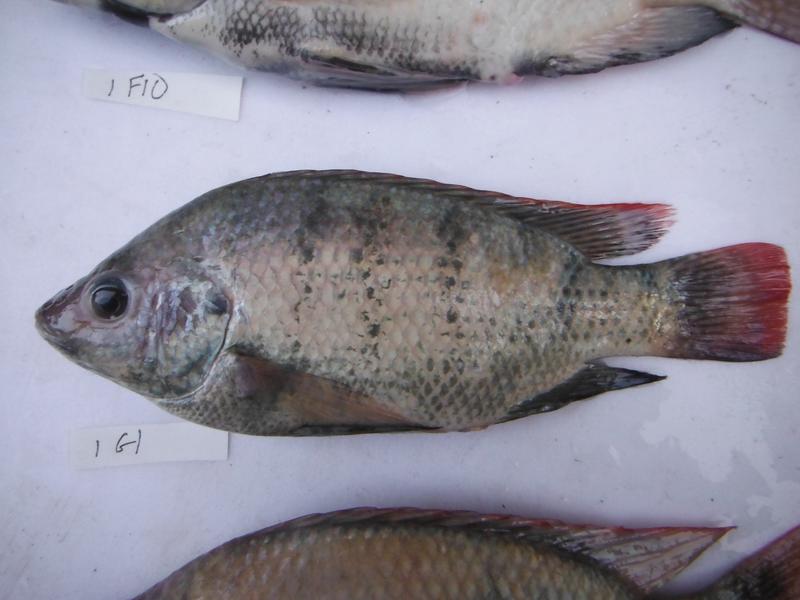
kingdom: Animalia
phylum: Chordata
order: Perciformes
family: Cichlidae
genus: Oreochromis
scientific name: Oreochromis rukwaensis
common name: Lake rukwa tilapia
